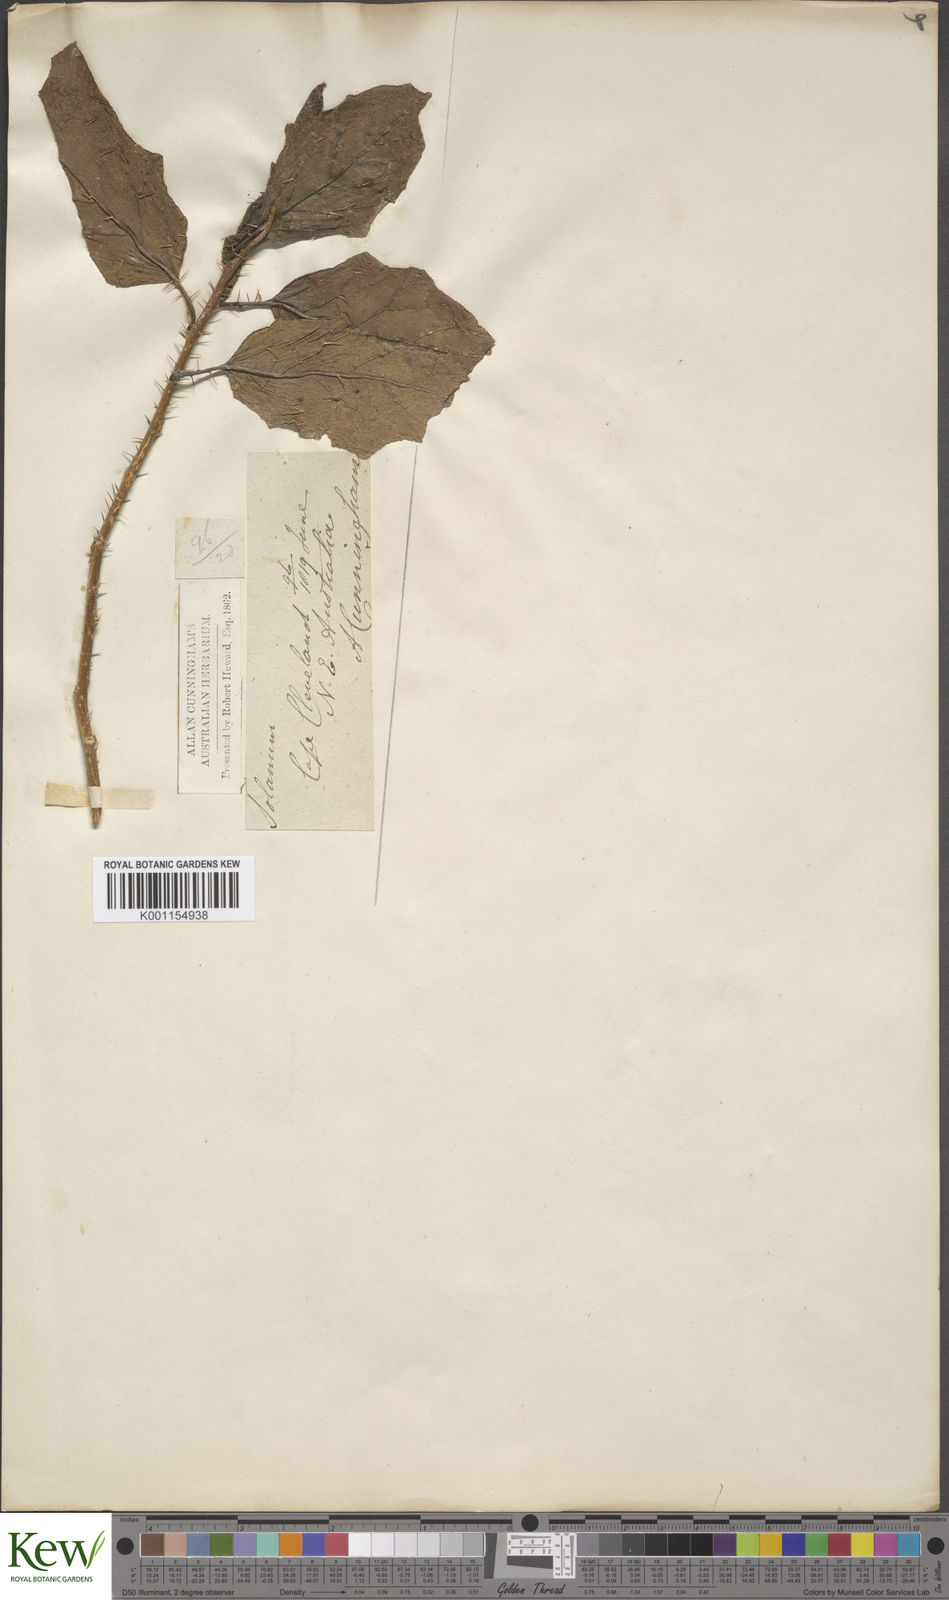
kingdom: Plantae
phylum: Tracheophyta
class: Magnoliopsida
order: Solanales
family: Solanaceae
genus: Solanum
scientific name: Solanum sporadotrichum
